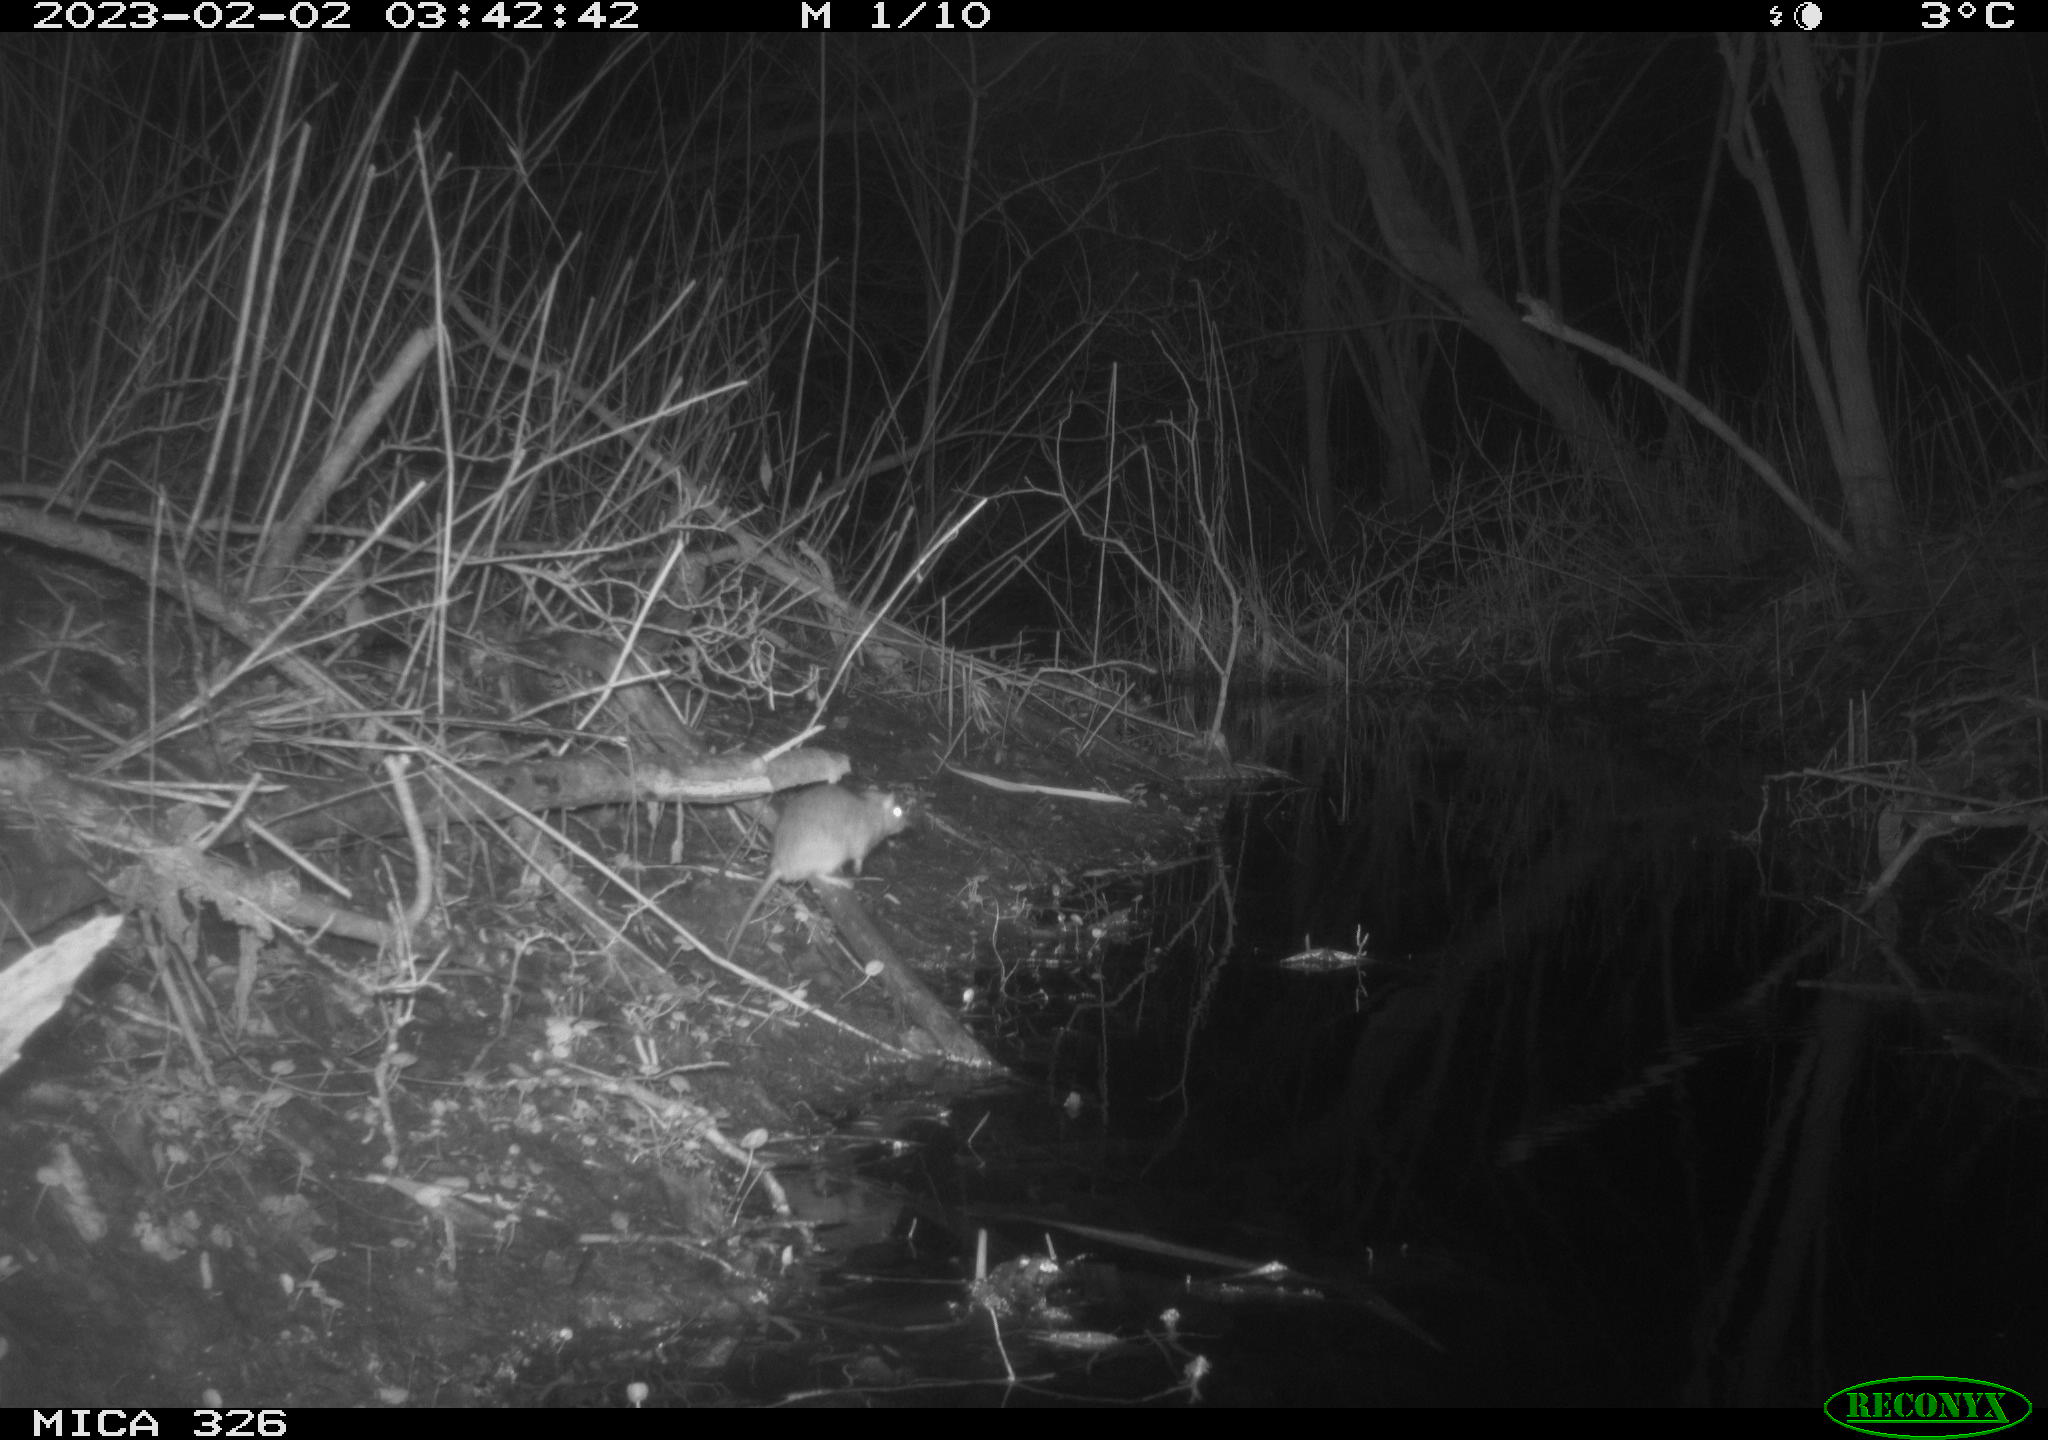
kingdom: Animalia
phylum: Chordata
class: Mammalia
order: Rodentia
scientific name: Rodentia
